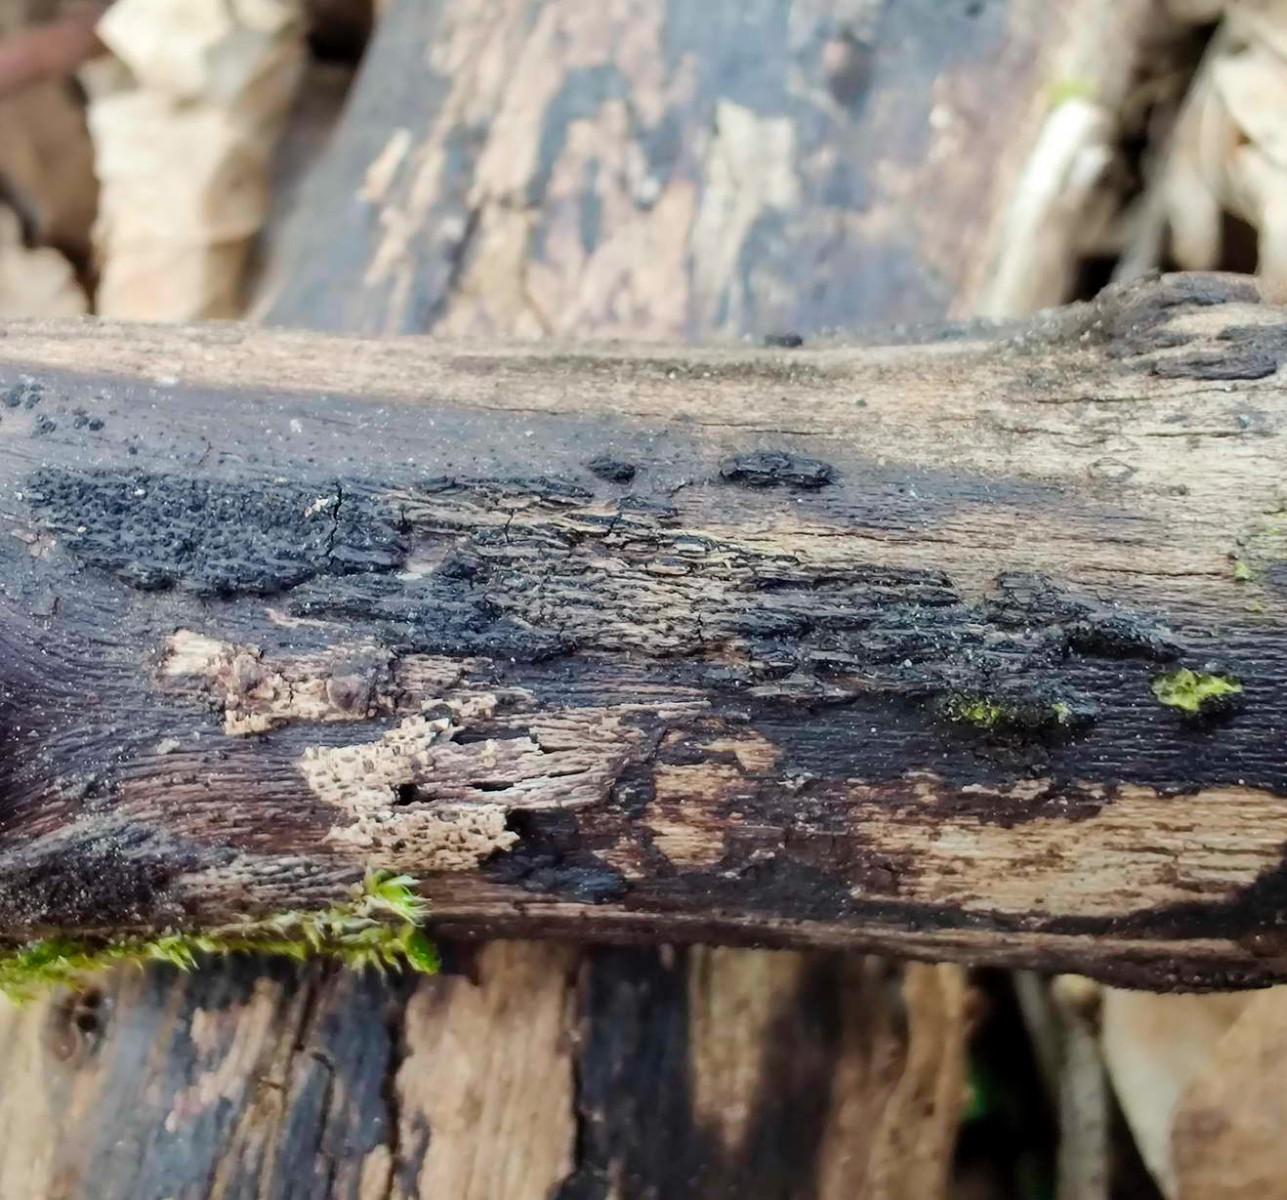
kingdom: Fungi
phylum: Ascomycota
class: Sordariomycetes
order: Xylariales
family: Diatrypaceae
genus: Eutypa
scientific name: Eutypa flavovirens
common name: grønkødet kulskorpe
